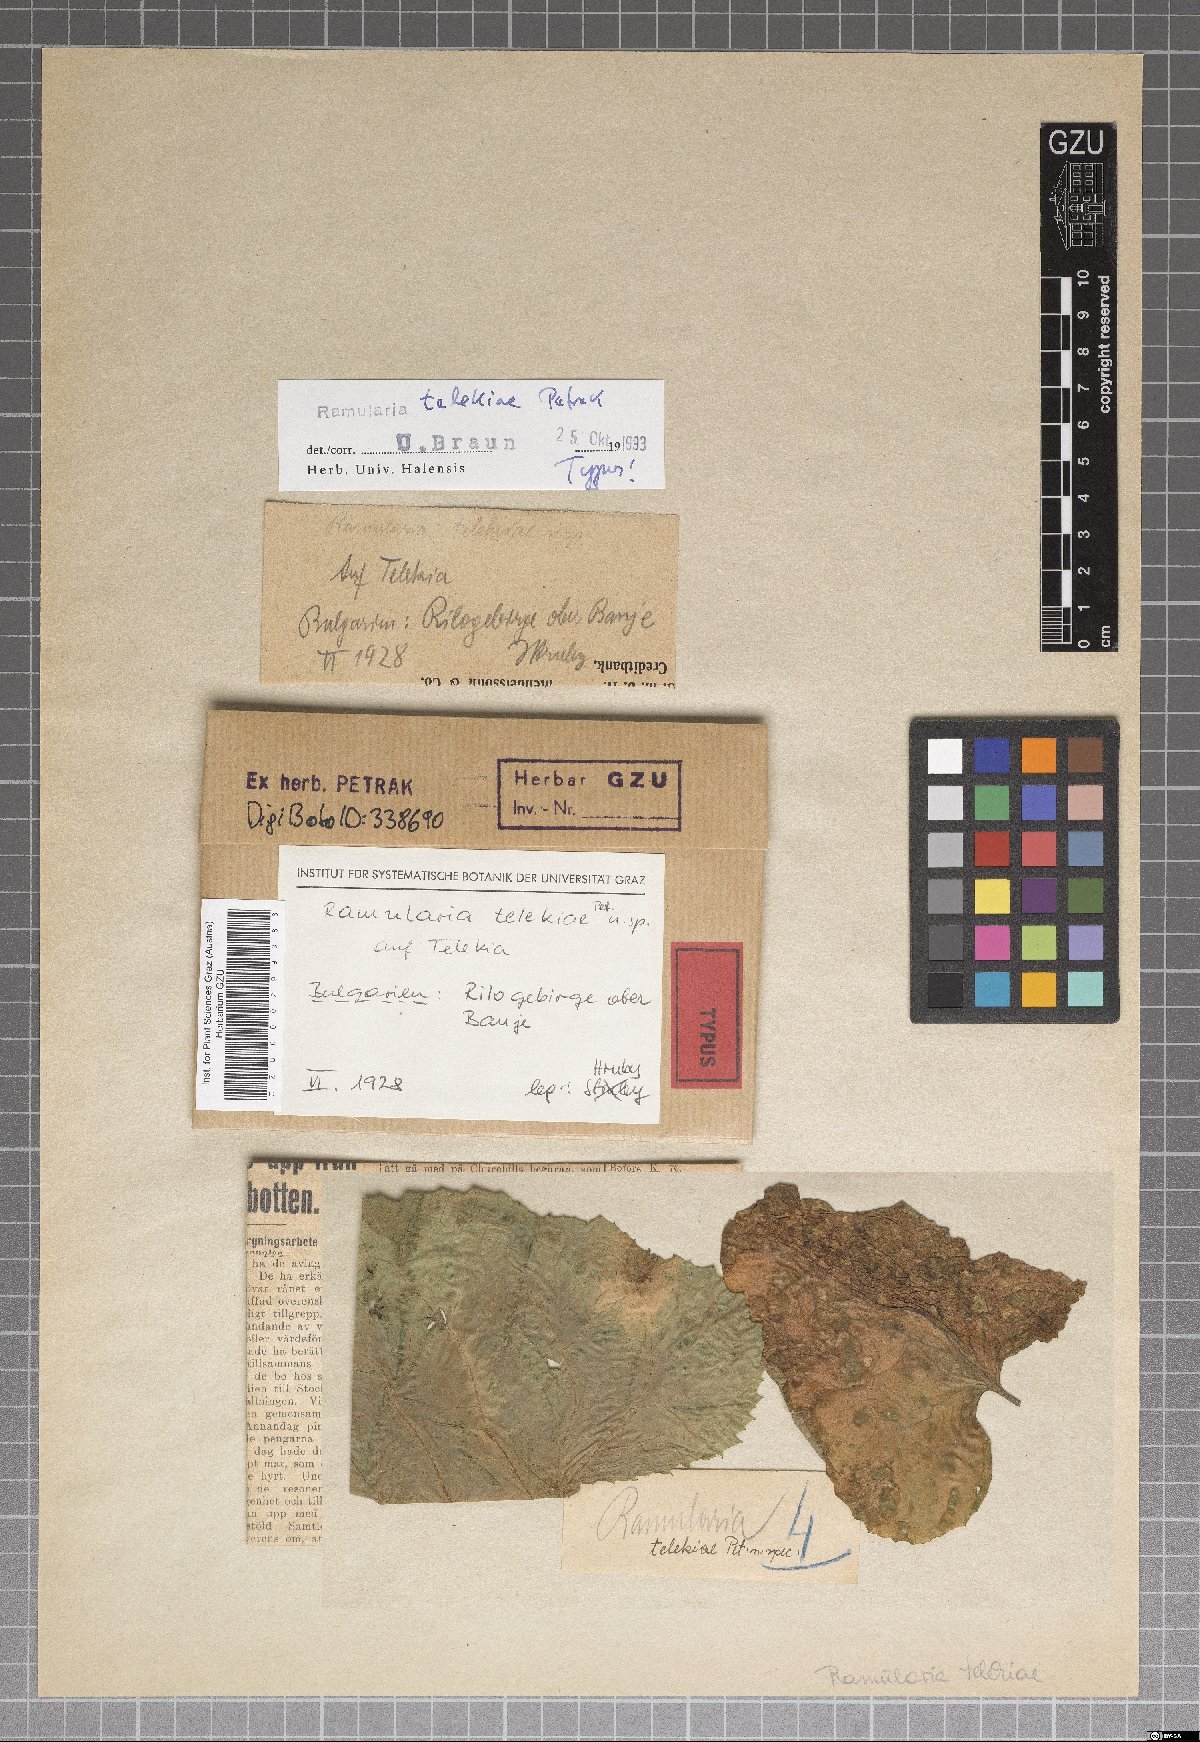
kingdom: Fungi
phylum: Ascomycota
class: Dothideomycetes
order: Capnodiales
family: Mycosphaerellaceae
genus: Ramularia
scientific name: Ramularia telekiae
